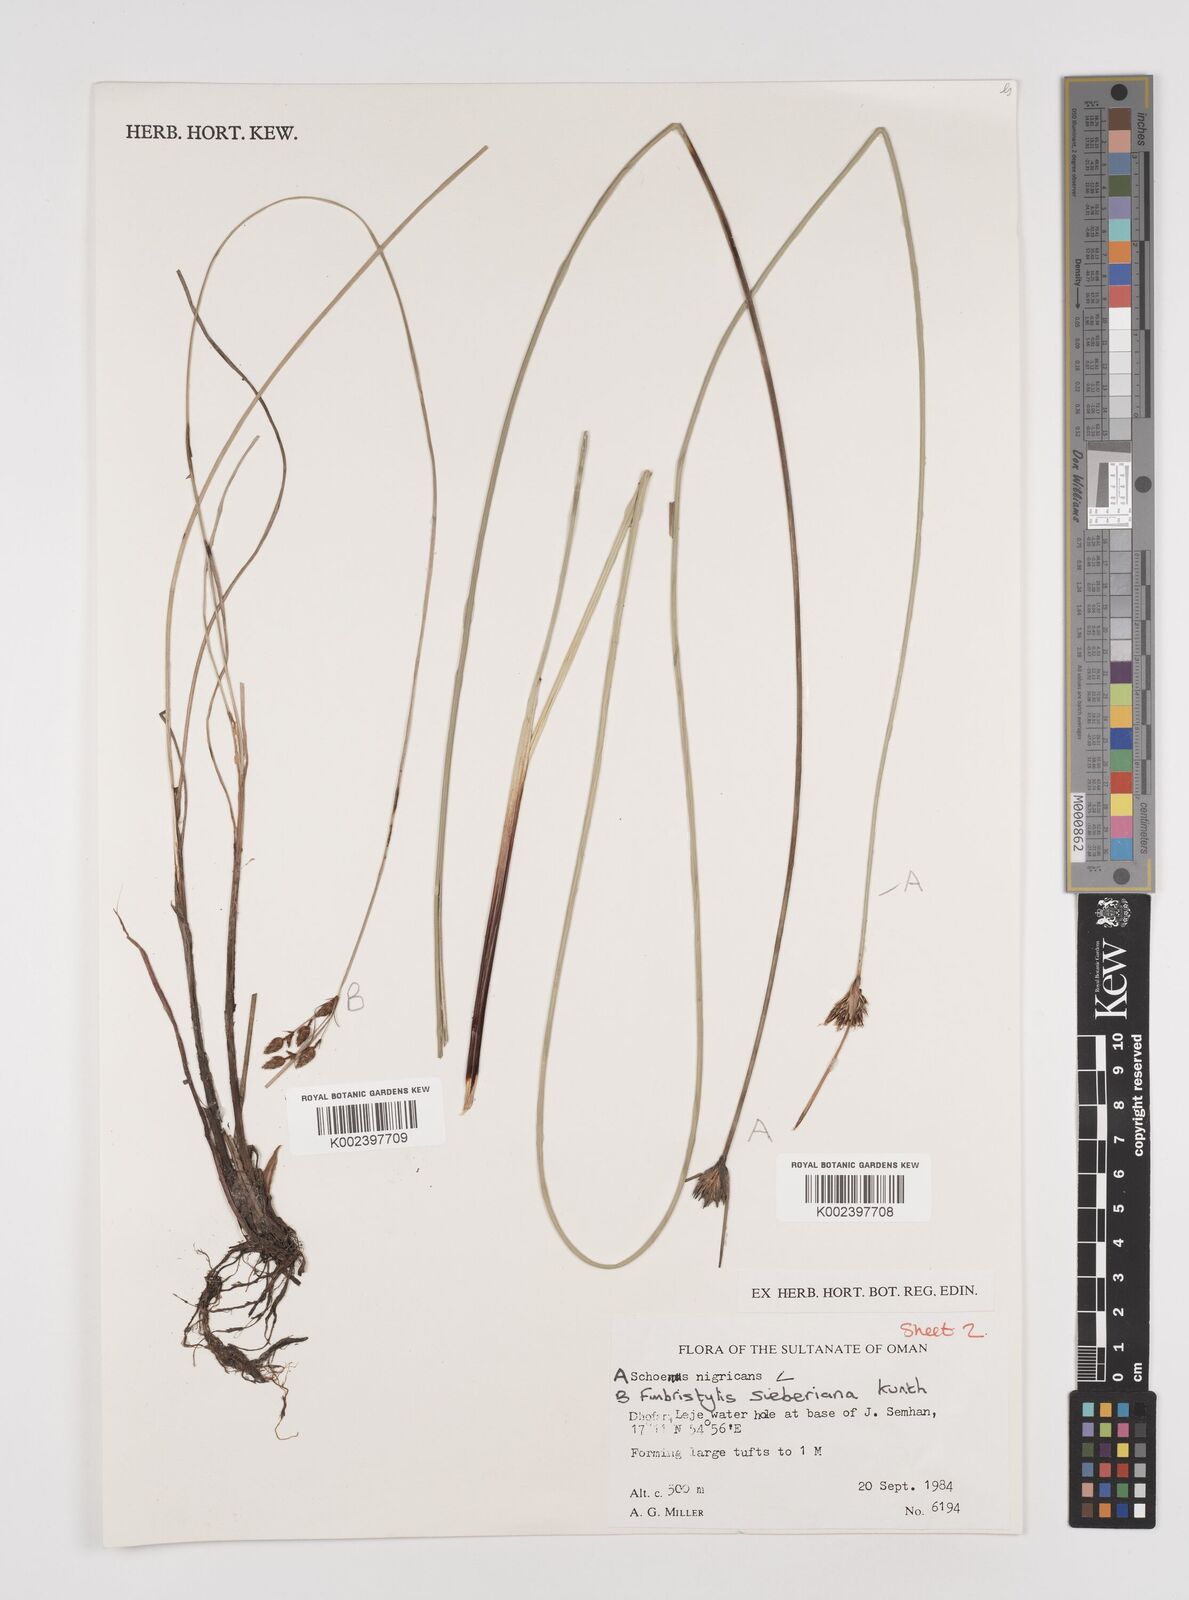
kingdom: Plantae
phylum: Tracheophyta
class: Liliopsida
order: Poales
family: Cyperaceae
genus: Schoenus
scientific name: Schoenus nigricans
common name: Black bog-rush
